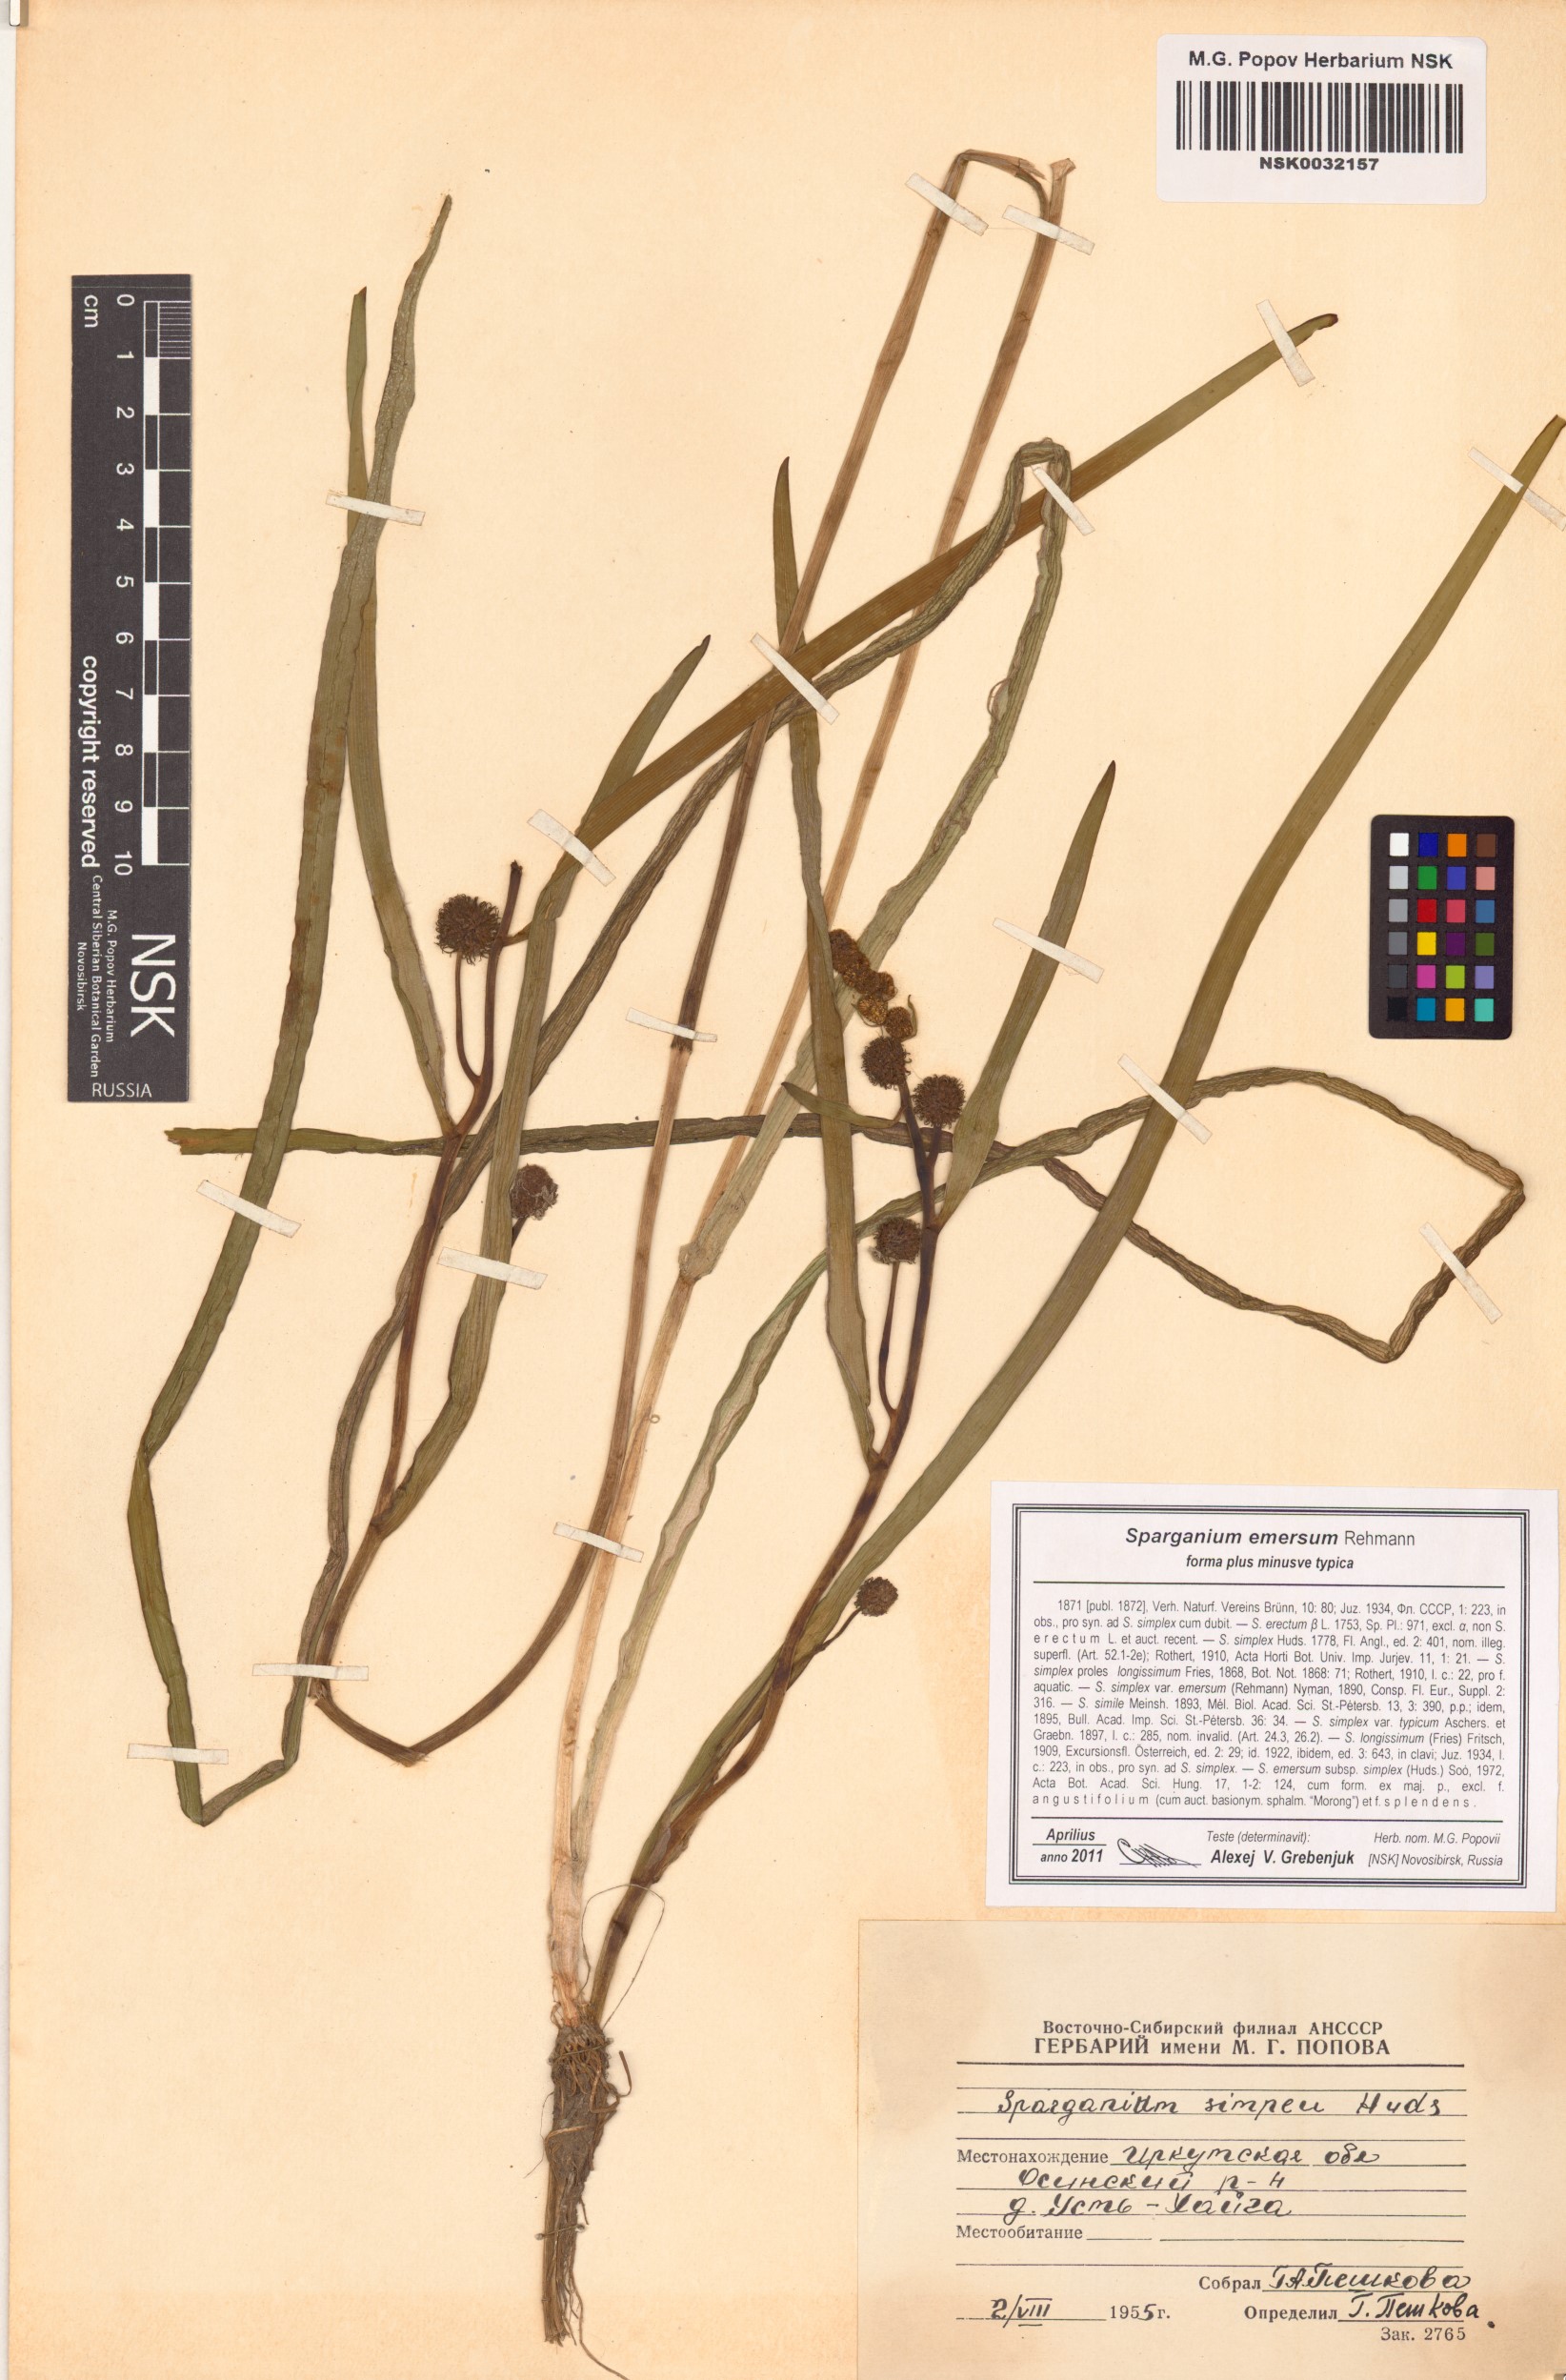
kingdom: Plantae
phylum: Tracheophyta
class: Liliopsida
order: Poales
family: Typhaceae
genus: Sparganium
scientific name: Sparganium emersum
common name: Unbranched bur-reed
